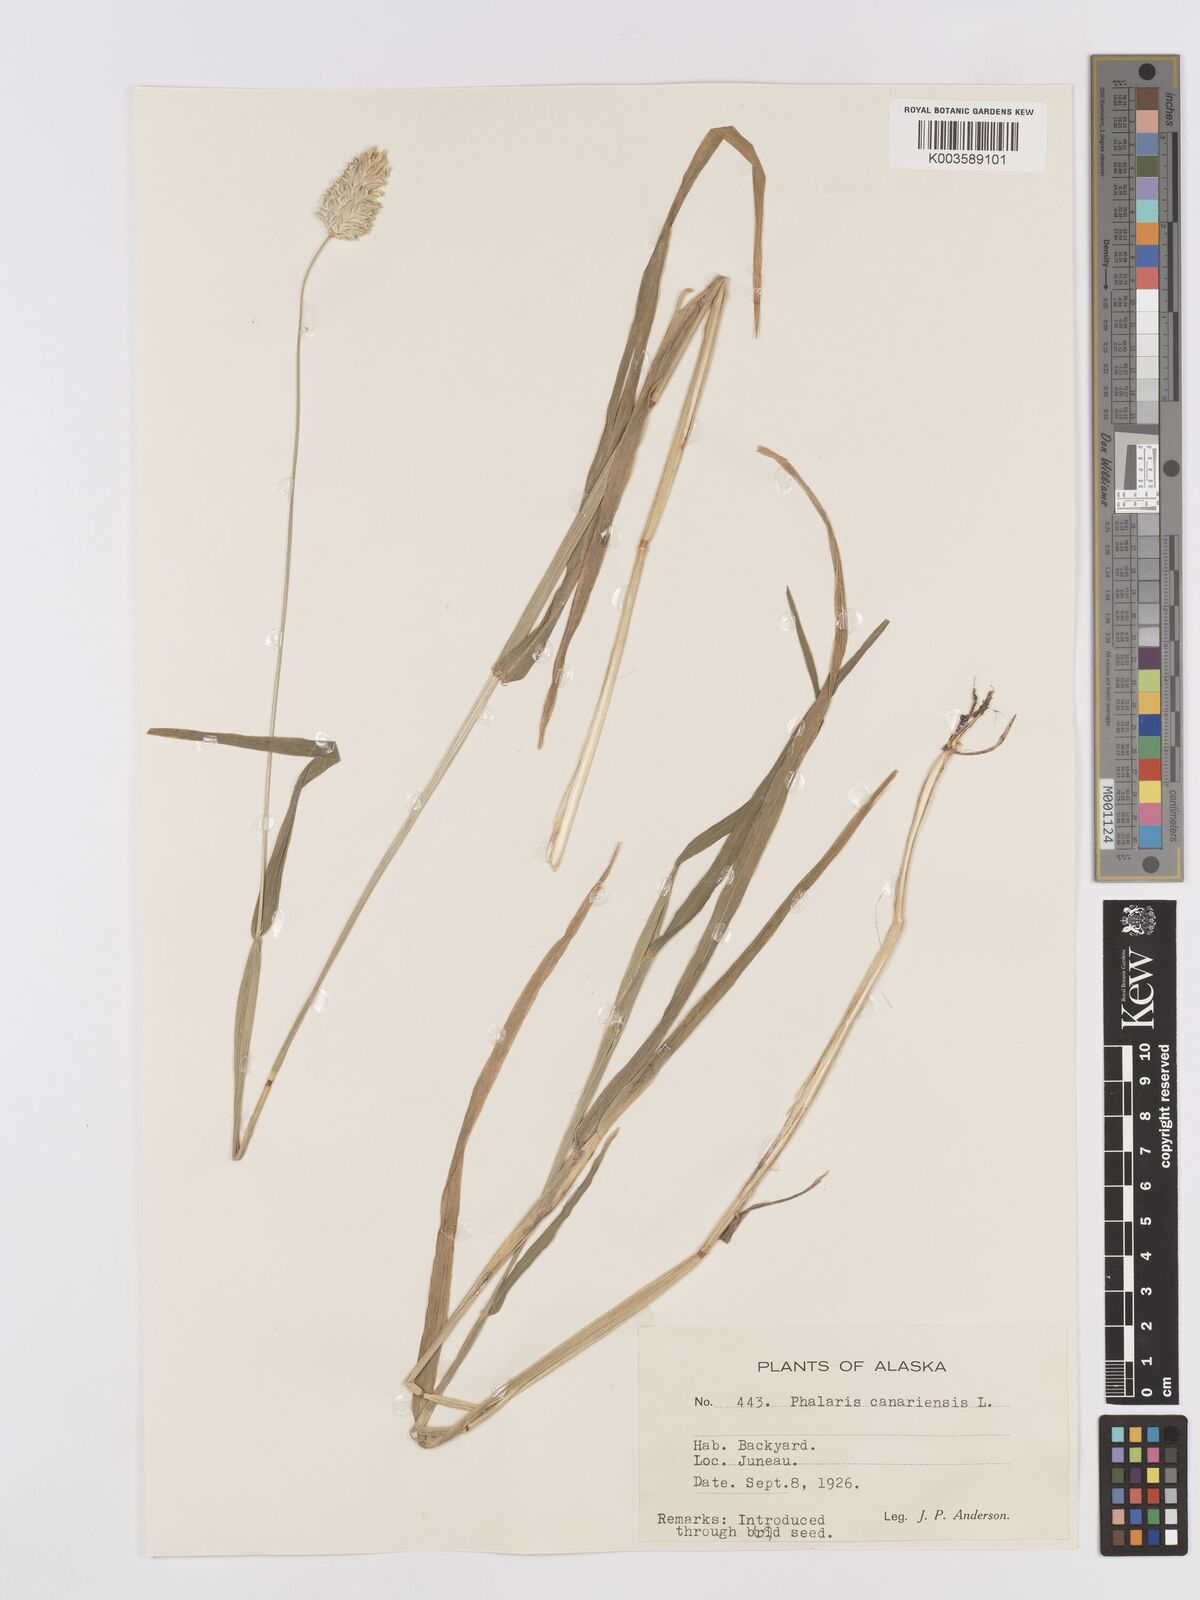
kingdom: Plantae
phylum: Tracheophyta
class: Liliopsida
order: Poales
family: Poaceae
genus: Phalaris
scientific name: Phalaris canariensis
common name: Annual canarygrass
